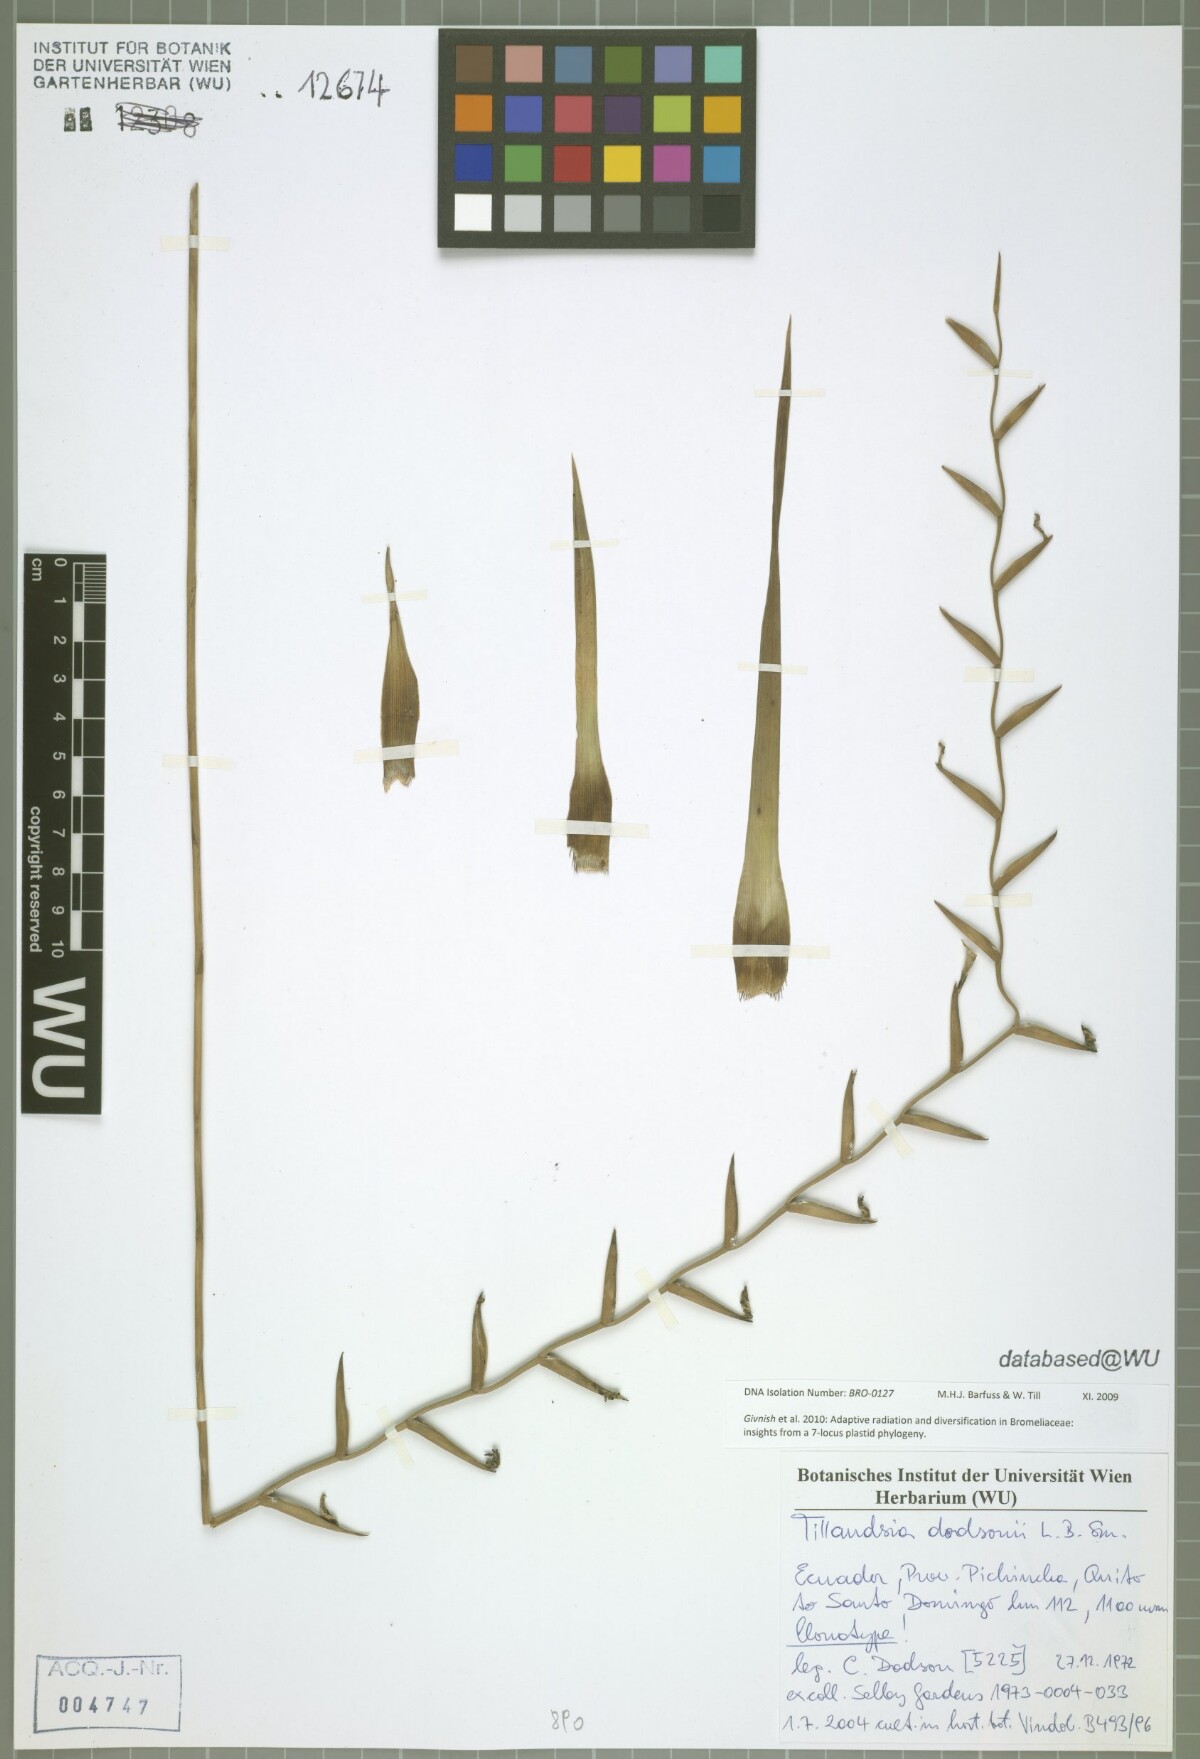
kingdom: Plantae
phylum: Tracheophyta
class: Liliopsida
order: Poales
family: Bromeliaceae
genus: Lemeltonia
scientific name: Lemeltonia dodsonii
